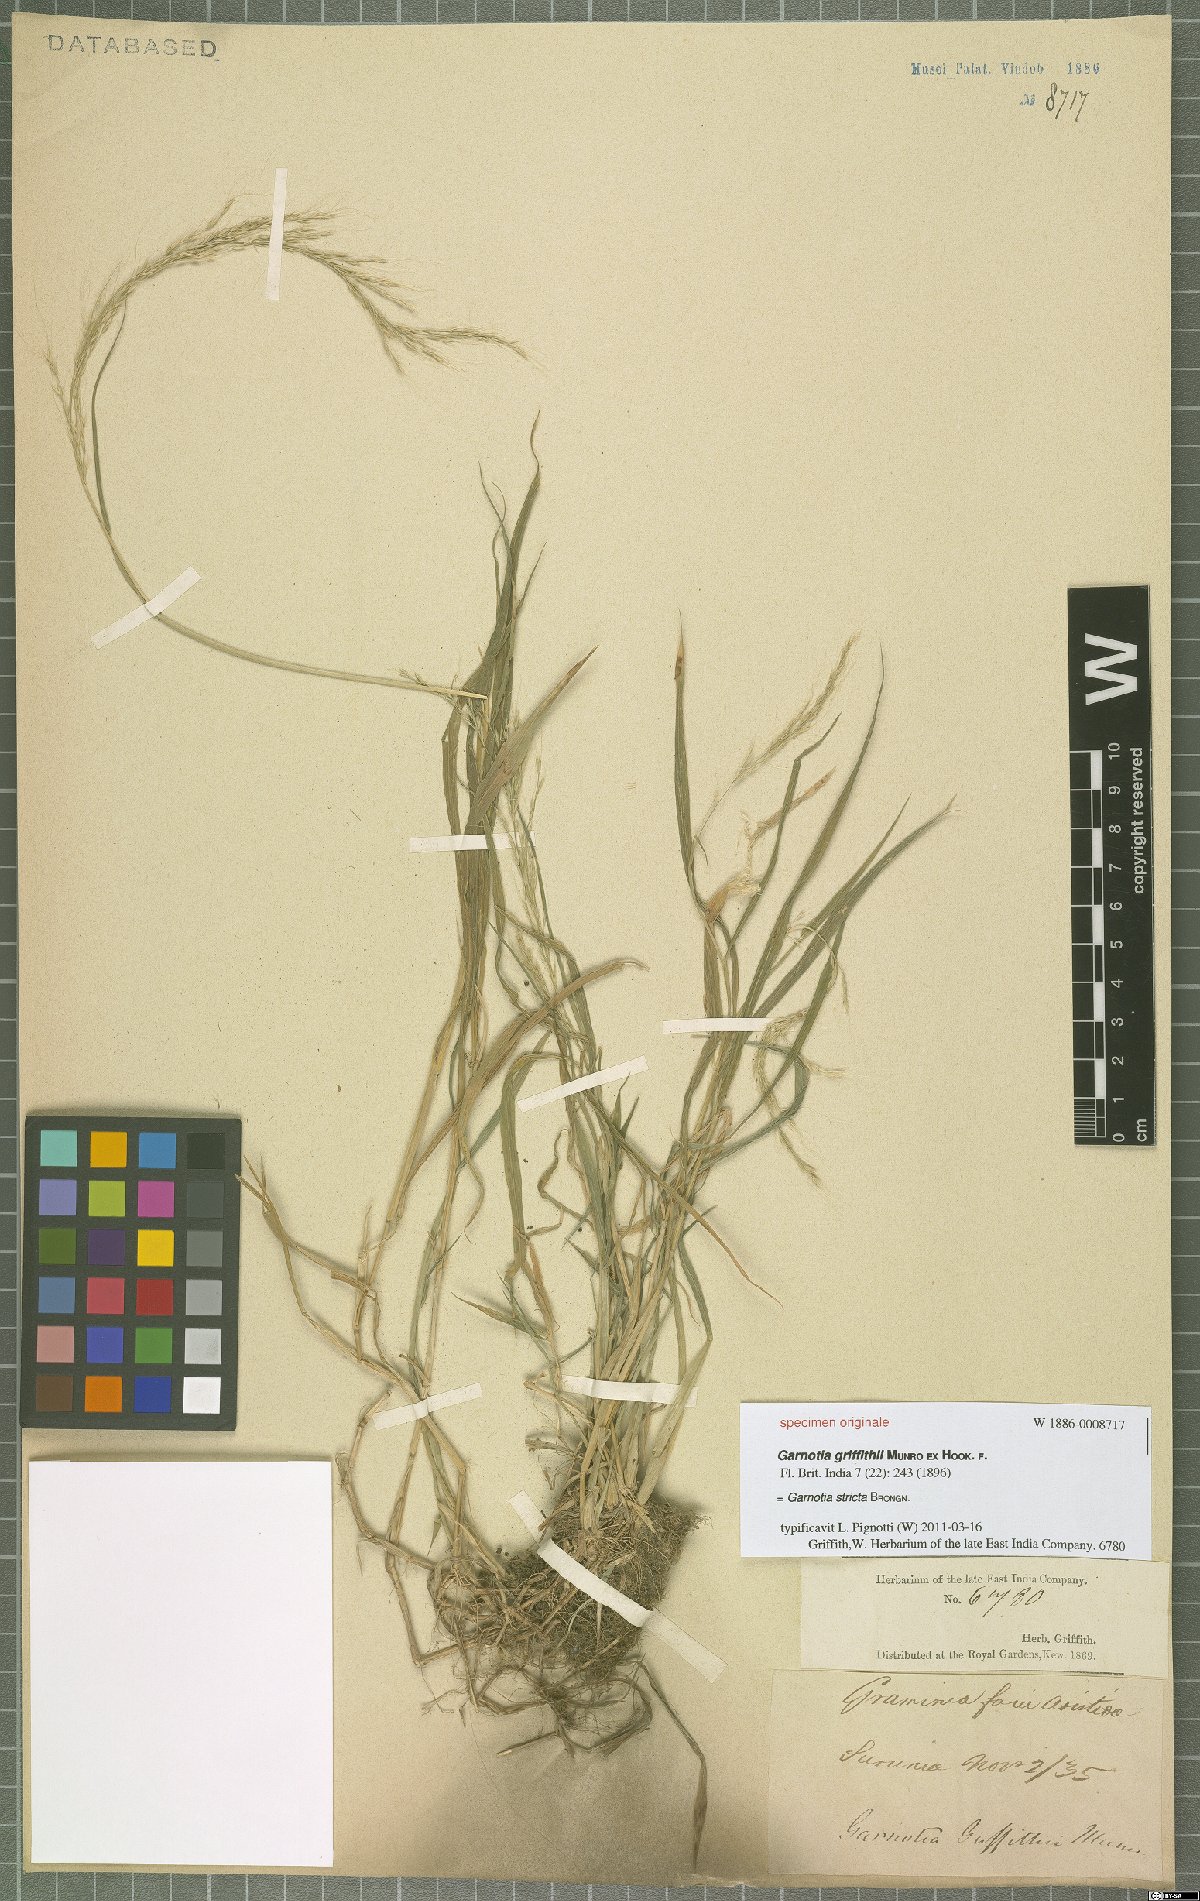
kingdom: Plantae
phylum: Tracheophyta
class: Liliopsida
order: Poales
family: Poaceae
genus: Garnotia
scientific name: Garnotia stricta
